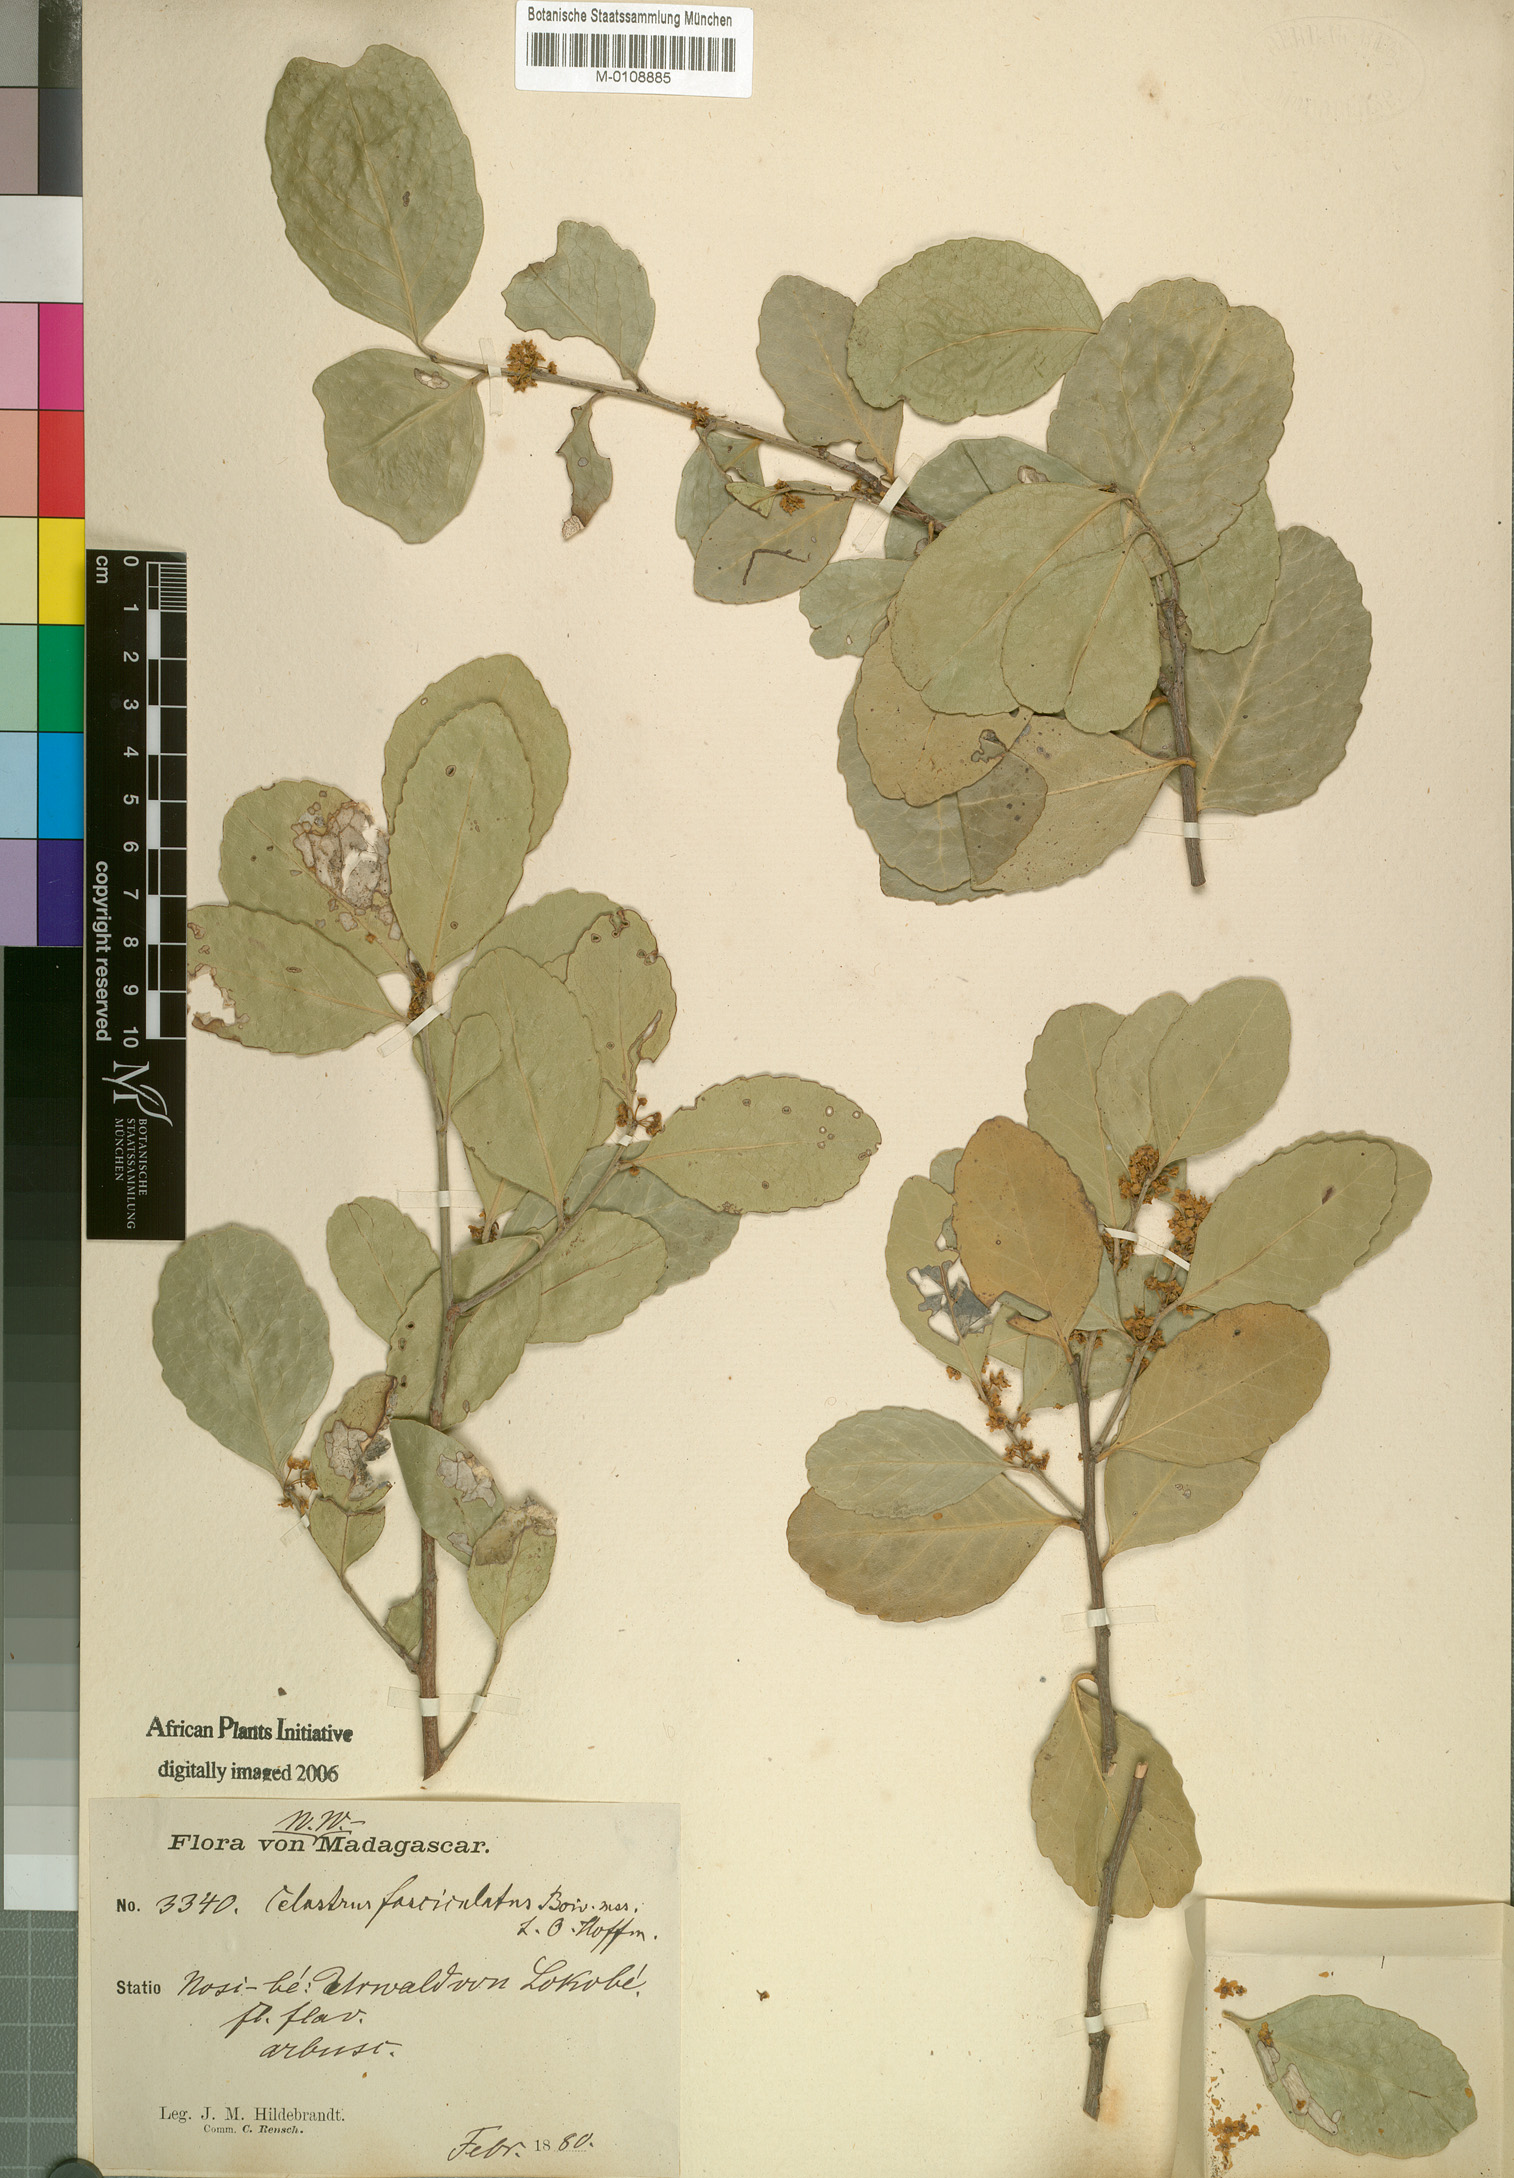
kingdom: Plantae
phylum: Tracheophyta
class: Magnoliopsida
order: Celastrales
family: Celastraceae
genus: Gymnosporia
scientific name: Gymnosporia undata
